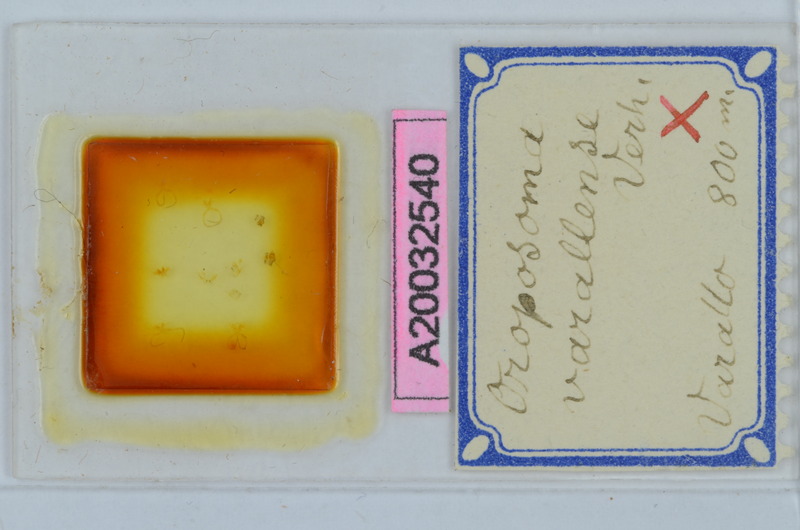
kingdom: Animalia
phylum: Arthropoda
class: Diplopoda
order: Chordeumatida
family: Craspedosomatidae
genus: Oroposoma
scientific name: Oroposoma varallense
